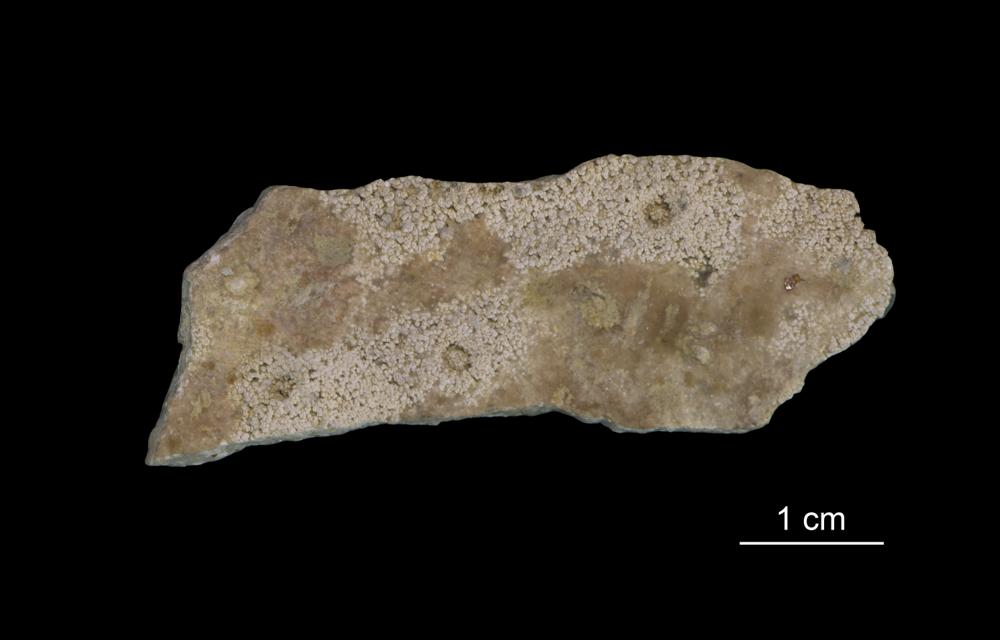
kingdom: Plantae
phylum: Tracheophyta
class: Magnoliopsida
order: Myrtales
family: Myrtaceae
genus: Darwinia
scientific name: Darwinia speciosa
